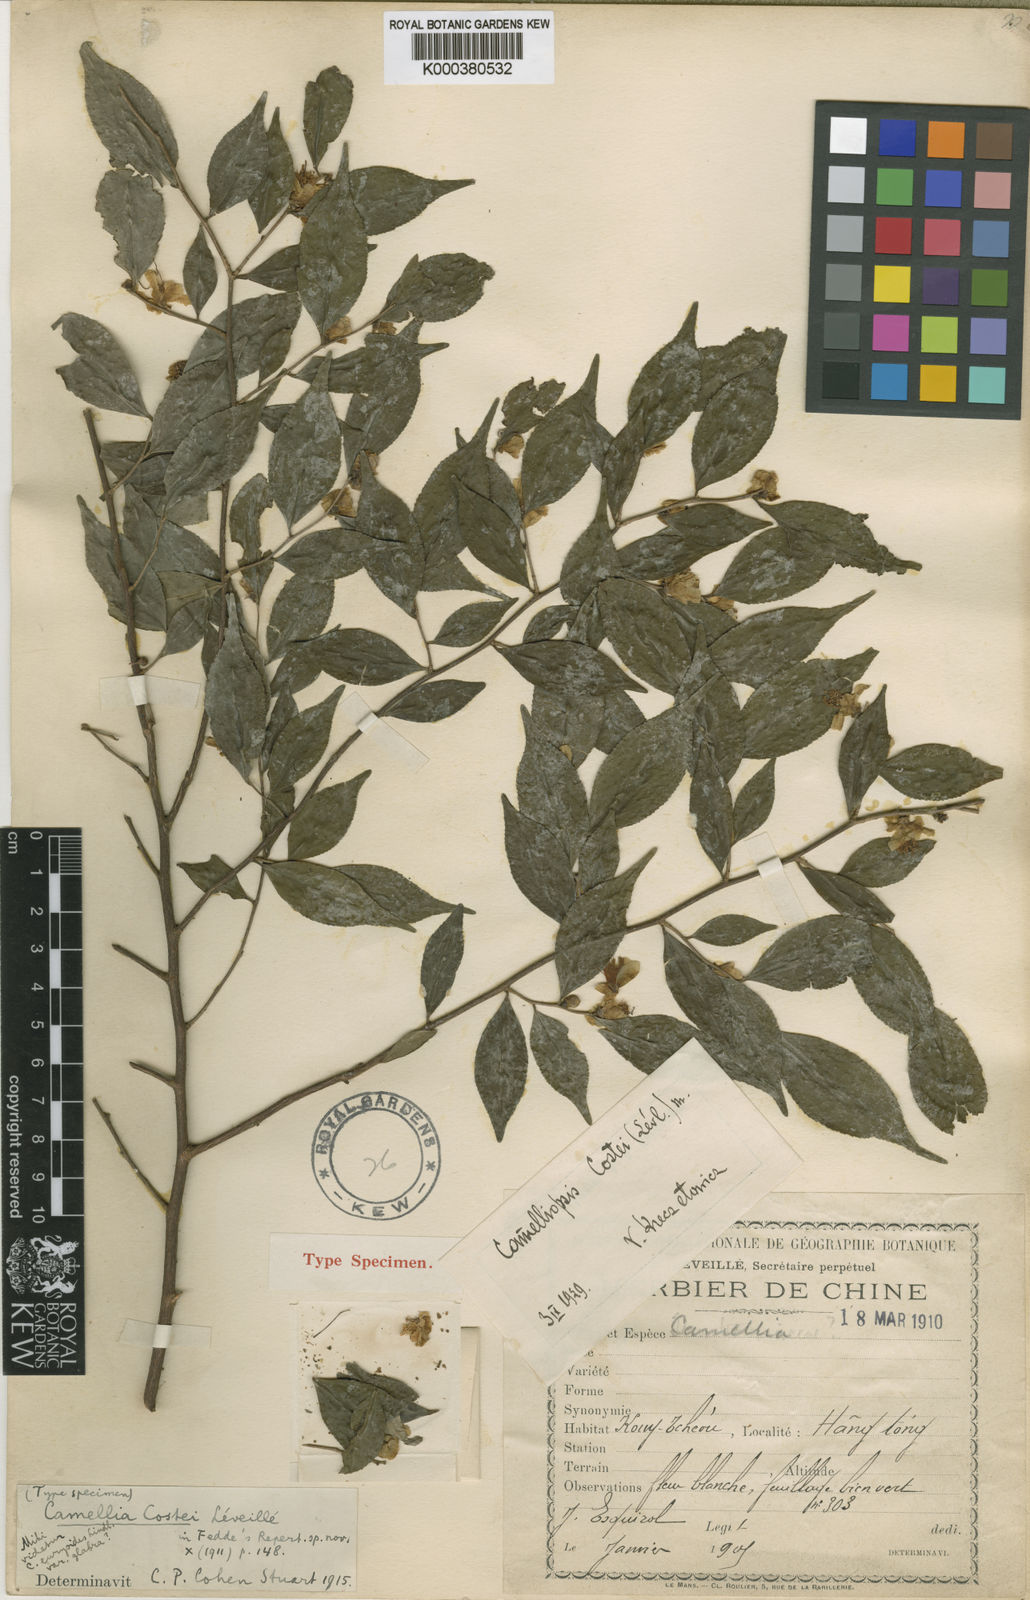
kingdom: Plantae
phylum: Tracheophyta
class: Magnoliopsida
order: Ericales
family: Theaceae
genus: Camellia
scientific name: Camellia
